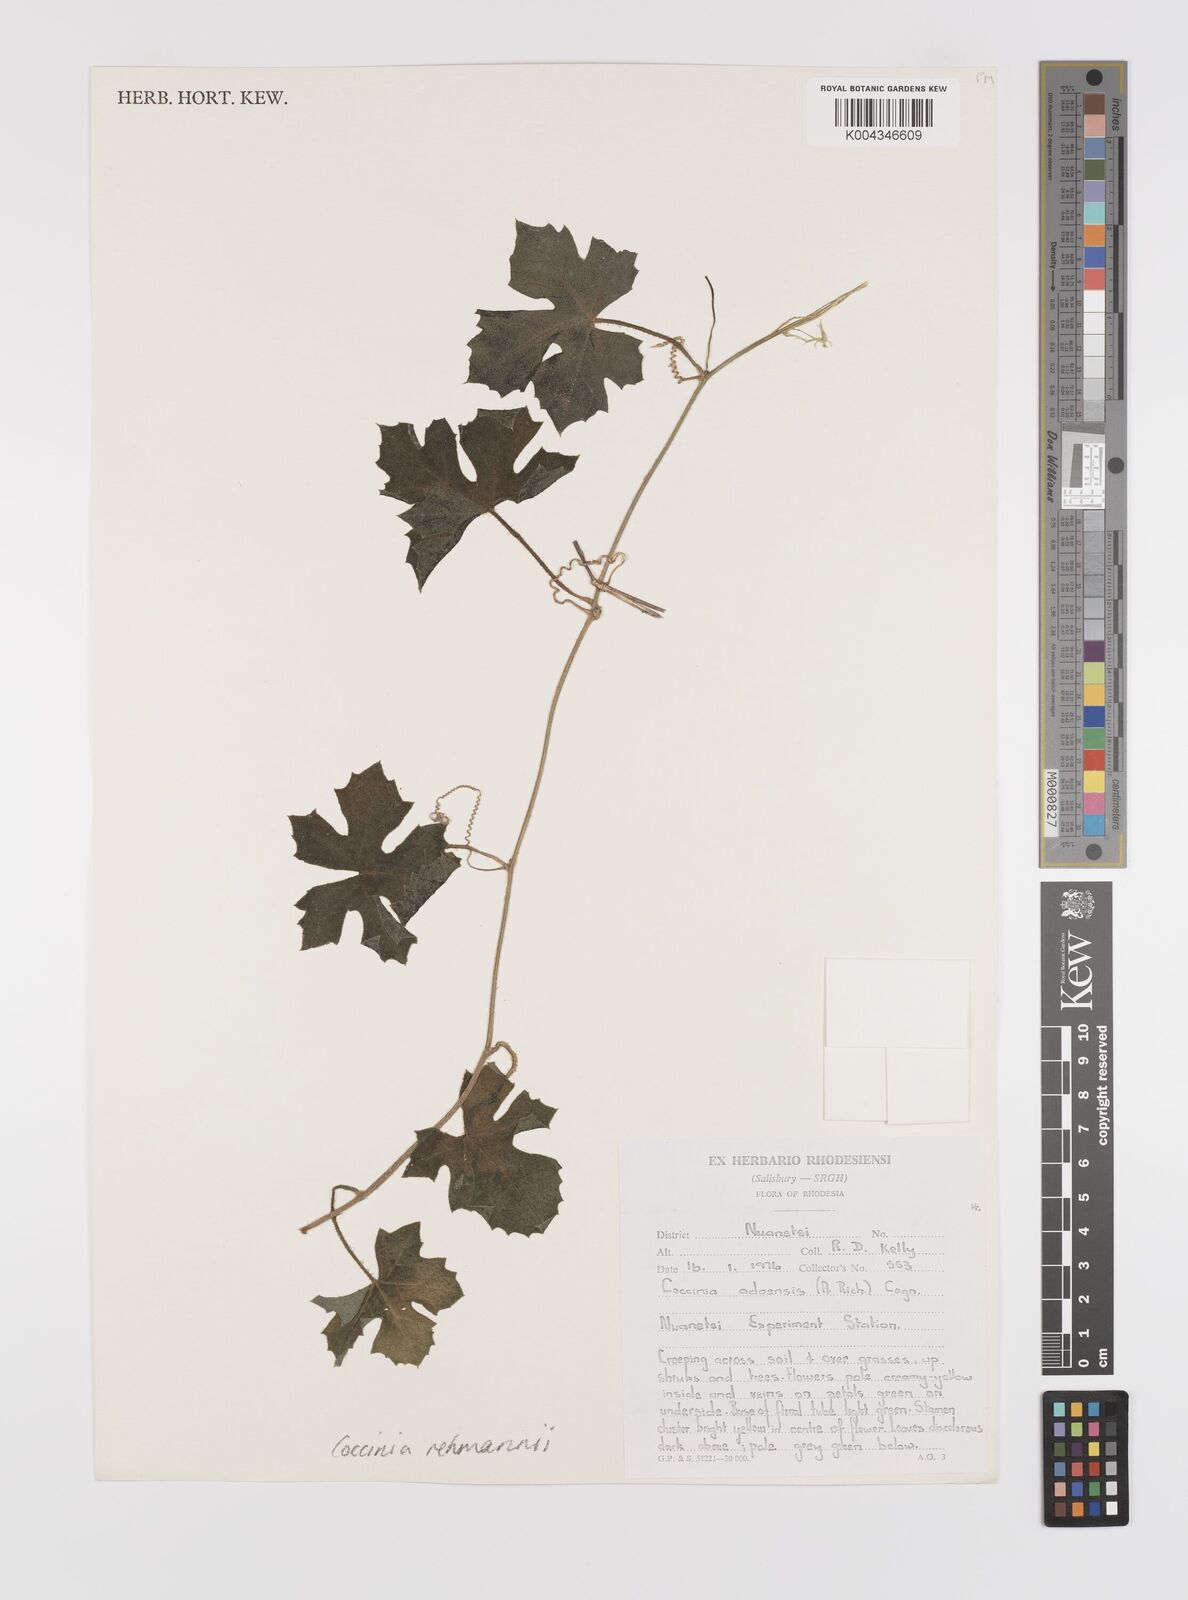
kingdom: Plantae
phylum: Tracheophyta
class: Magnoliopsida
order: Cucurbitales
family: Cucurbitaceae
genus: Coccinia
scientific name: Coccinia rehmannii
